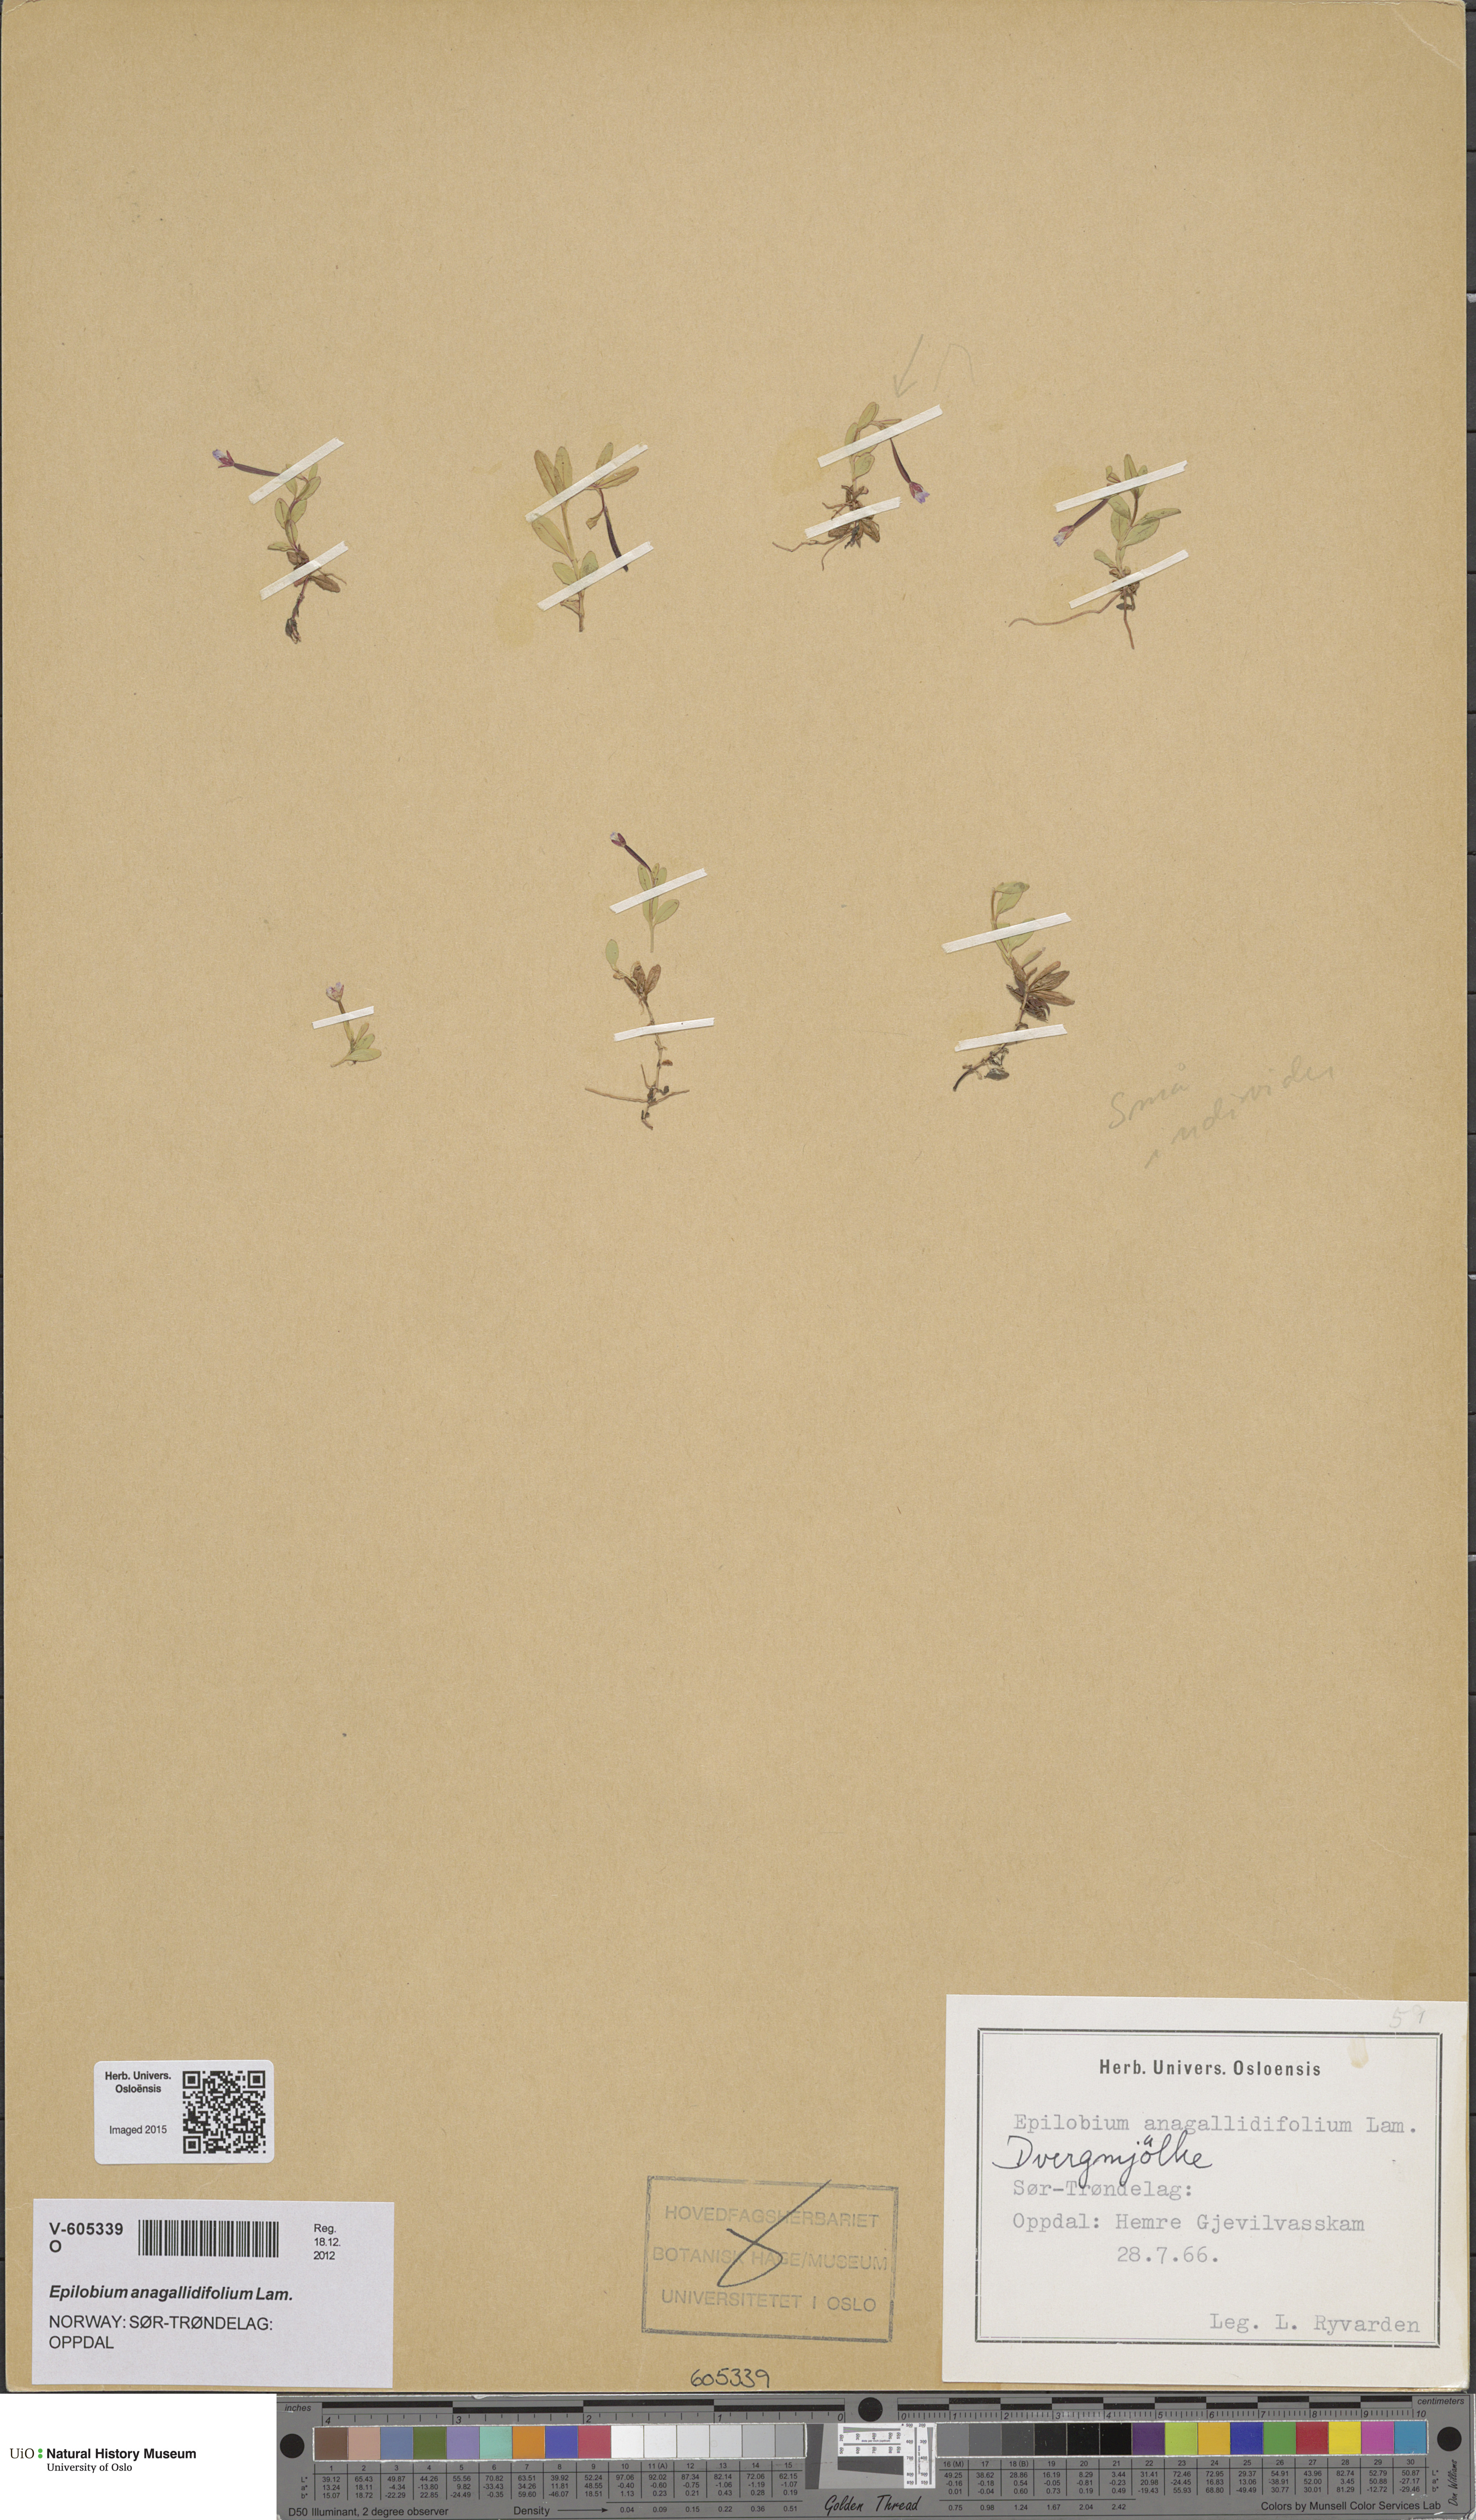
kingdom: Plantae
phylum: Tracheophyta
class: Magnoliopsida
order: Myrtales
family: Onagraceae
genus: Epilobium
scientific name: Epilobium anagallidifolium
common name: Alpine willowherb
